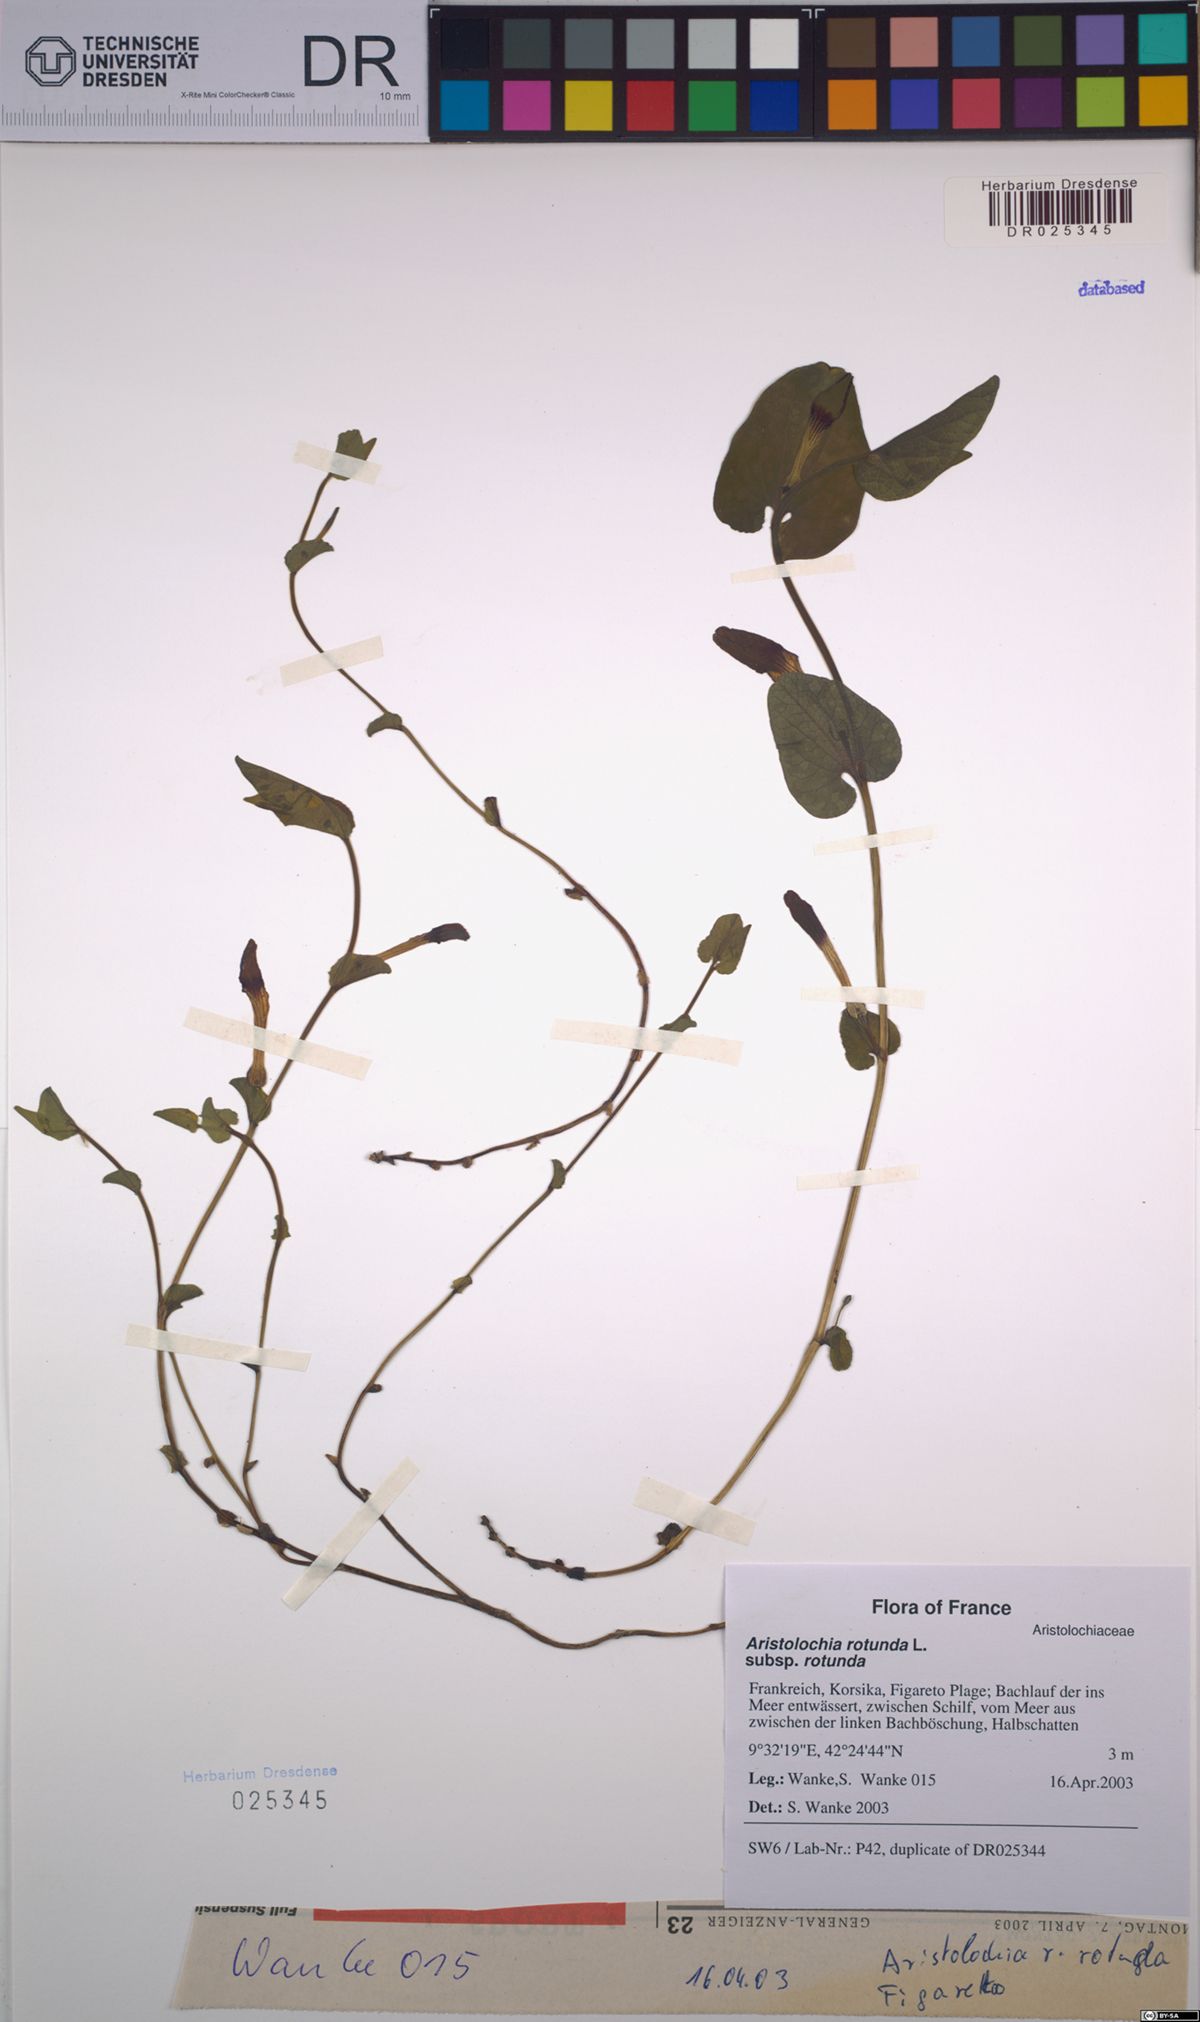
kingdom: Plantae
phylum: Tracheophyta
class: Magnoliopsida
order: Piperales
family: Aristolochiaceae
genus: Aristolochia
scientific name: Aristolochia rotunda
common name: Smearwort
